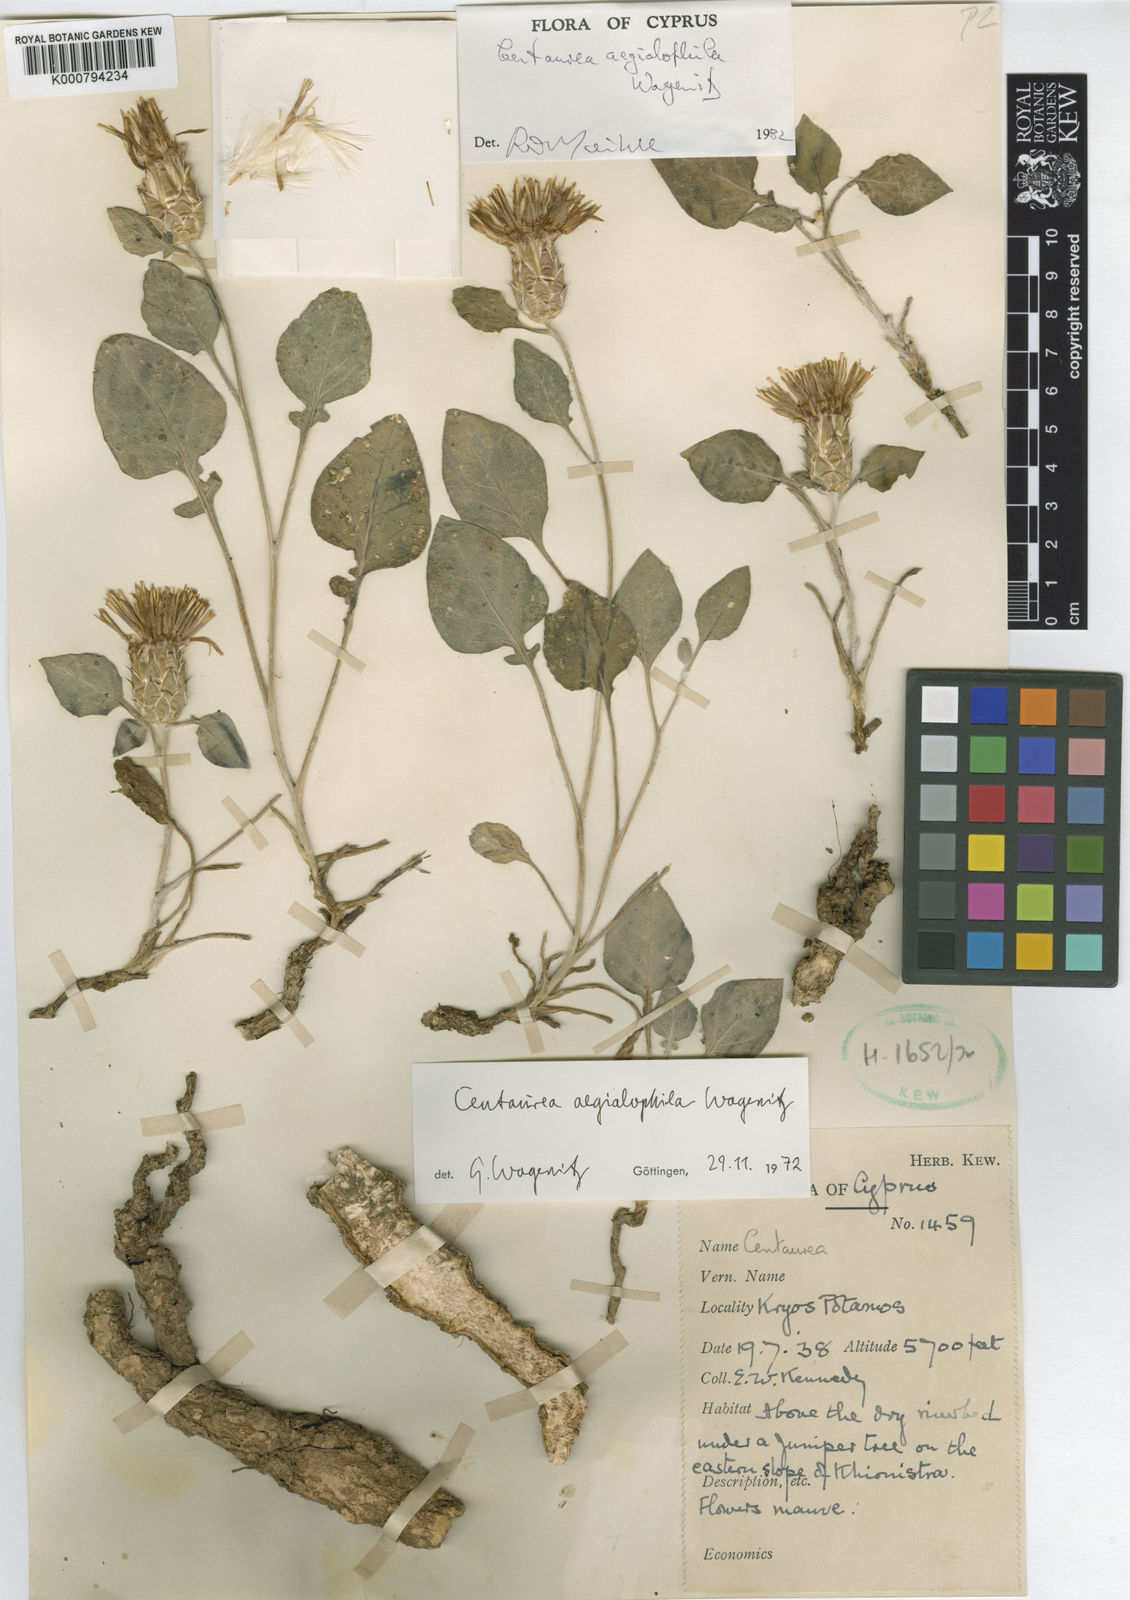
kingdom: Plantae
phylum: Tracheophyta
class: Magnoliopsida
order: Asterales
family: Asteraceae
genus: Centaurea
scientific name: Centaurea
